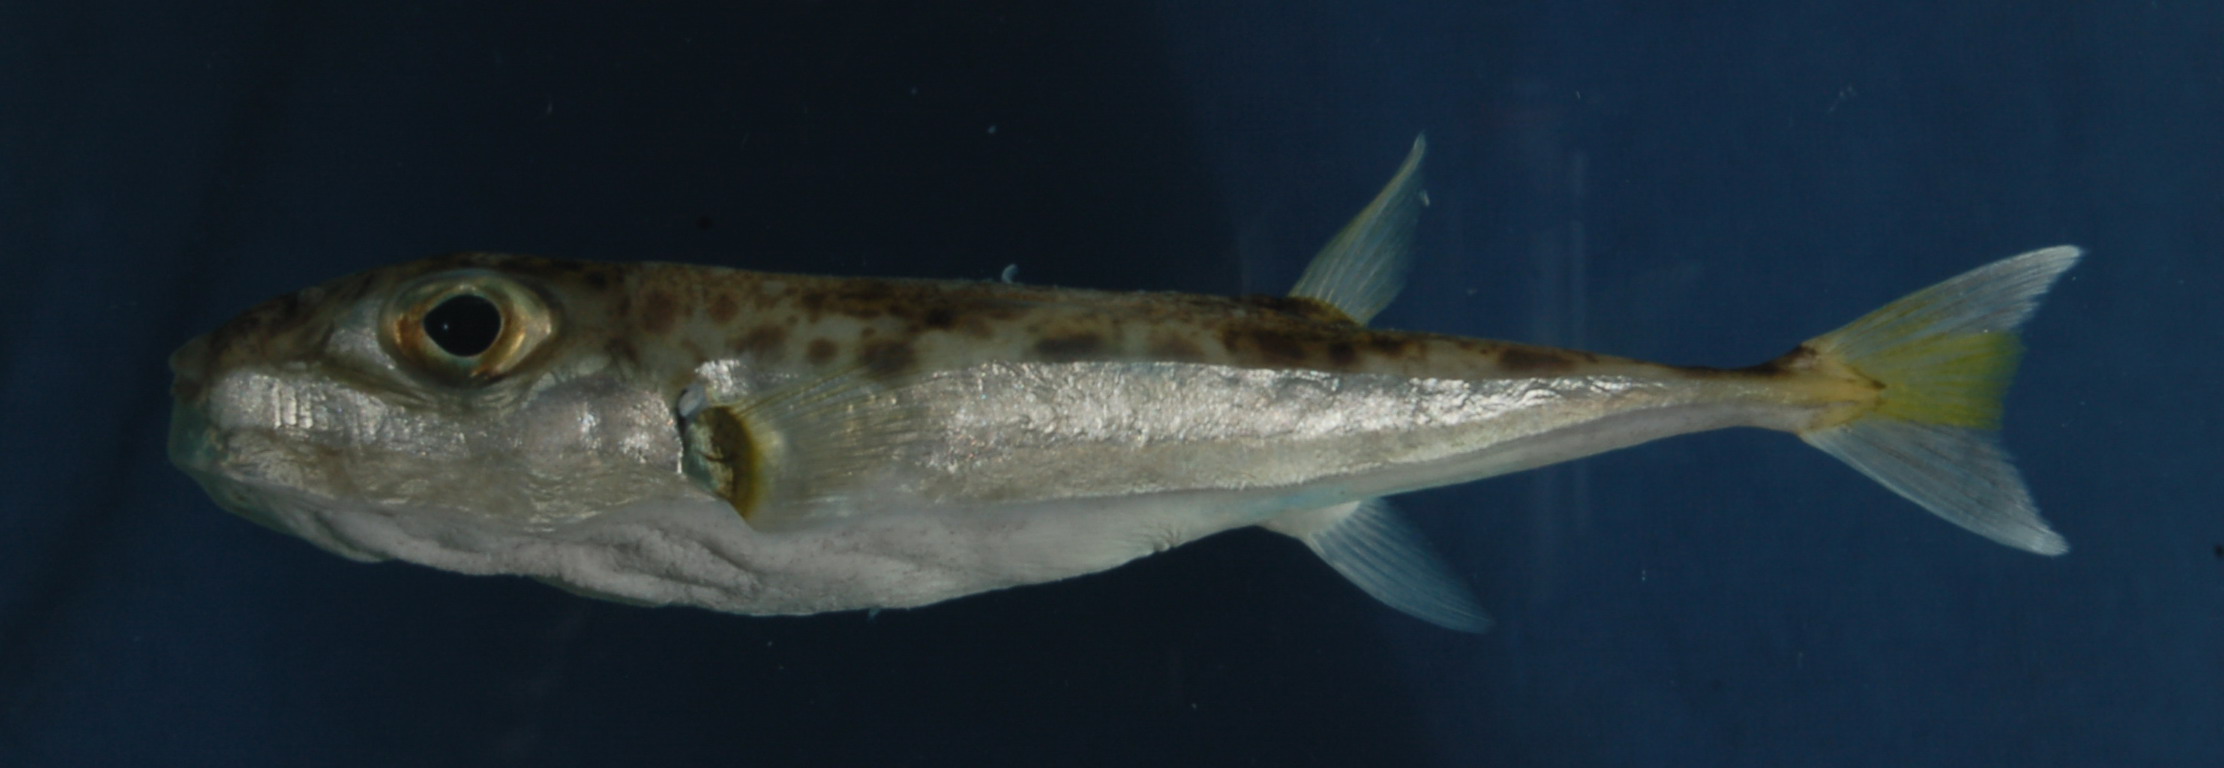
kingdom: Animalia
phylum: Chordata
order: Tetraodontiformes
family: Tetraodontidae
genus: Lagocephalus
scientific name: Lagocephalus suezensis
